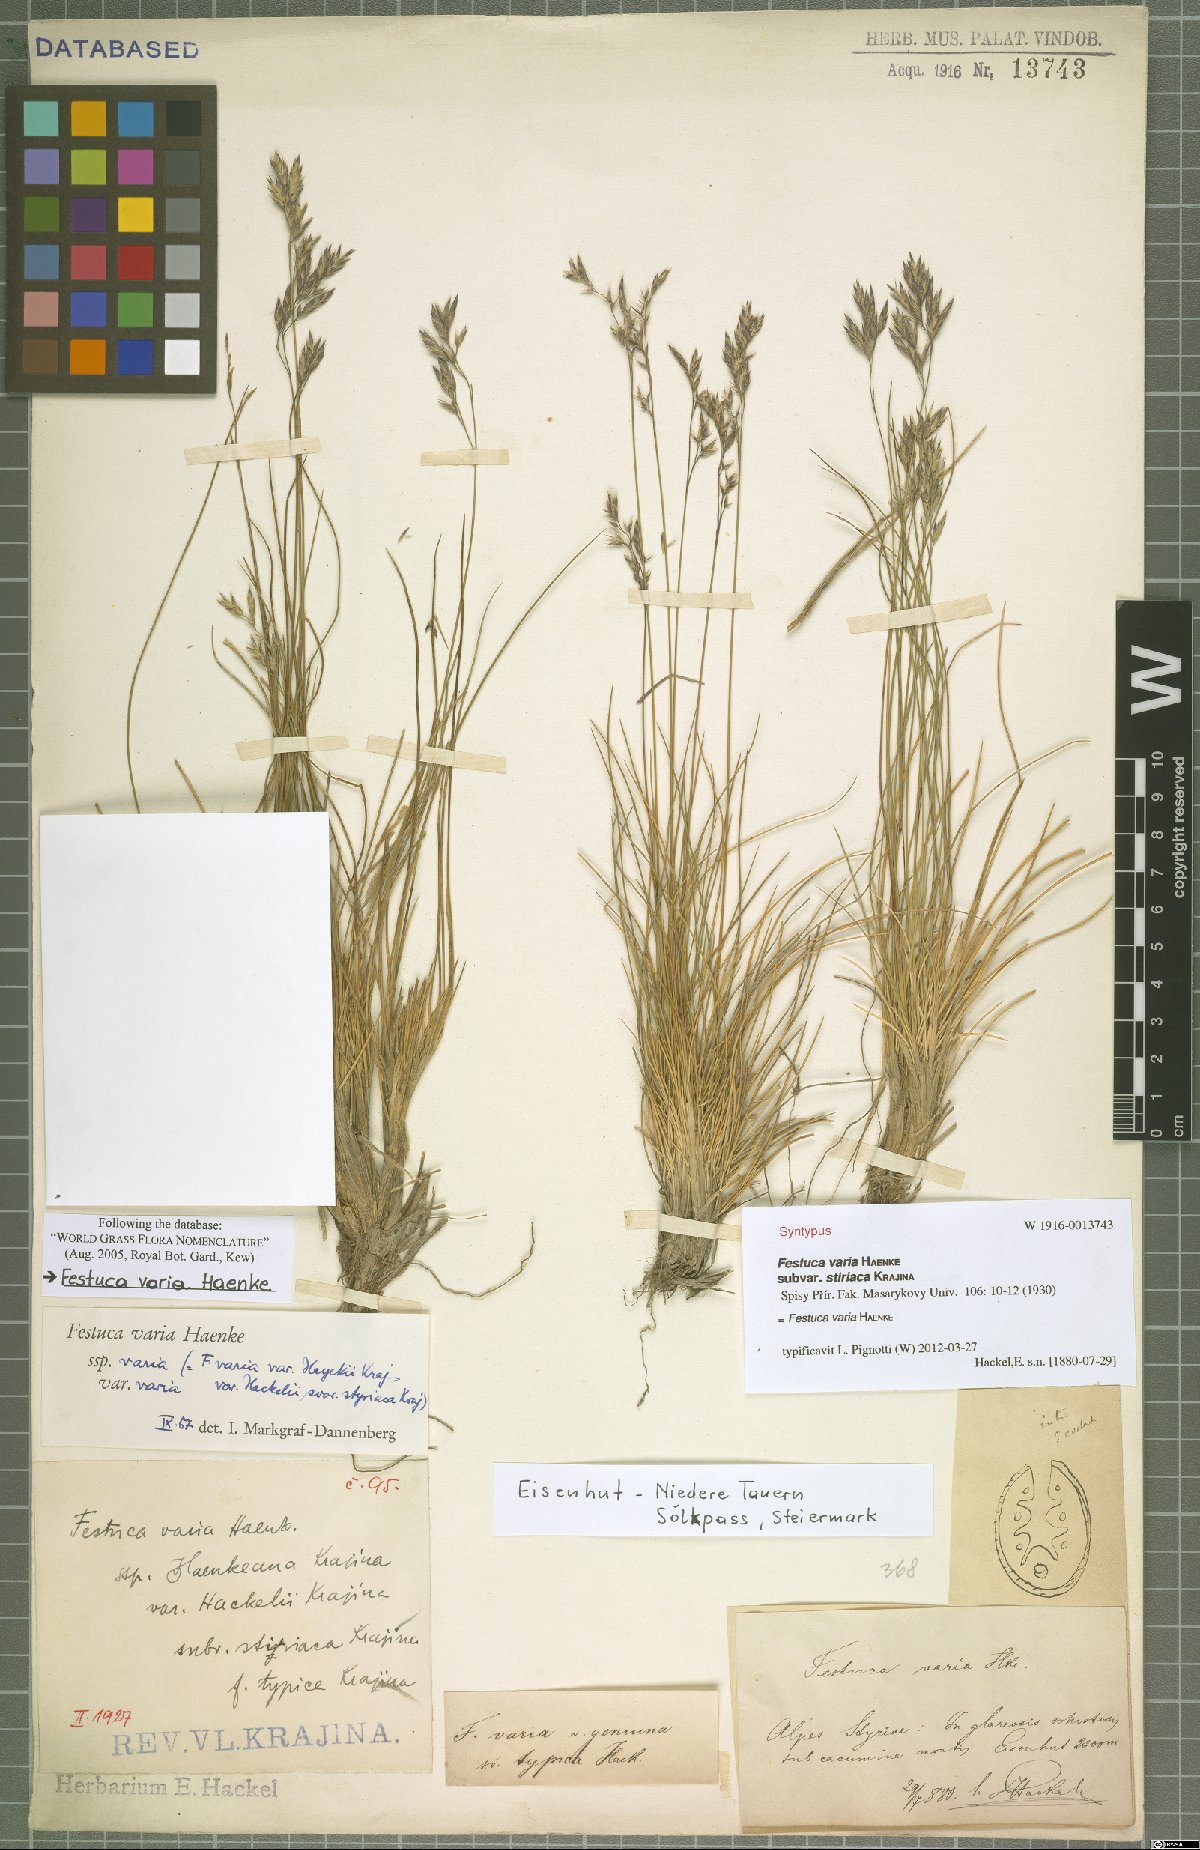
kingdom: Plantae
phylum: Tracheophyta
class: Liliopsida
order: Poales
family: Poaceae
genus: Festuca
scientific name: Festuca varia
